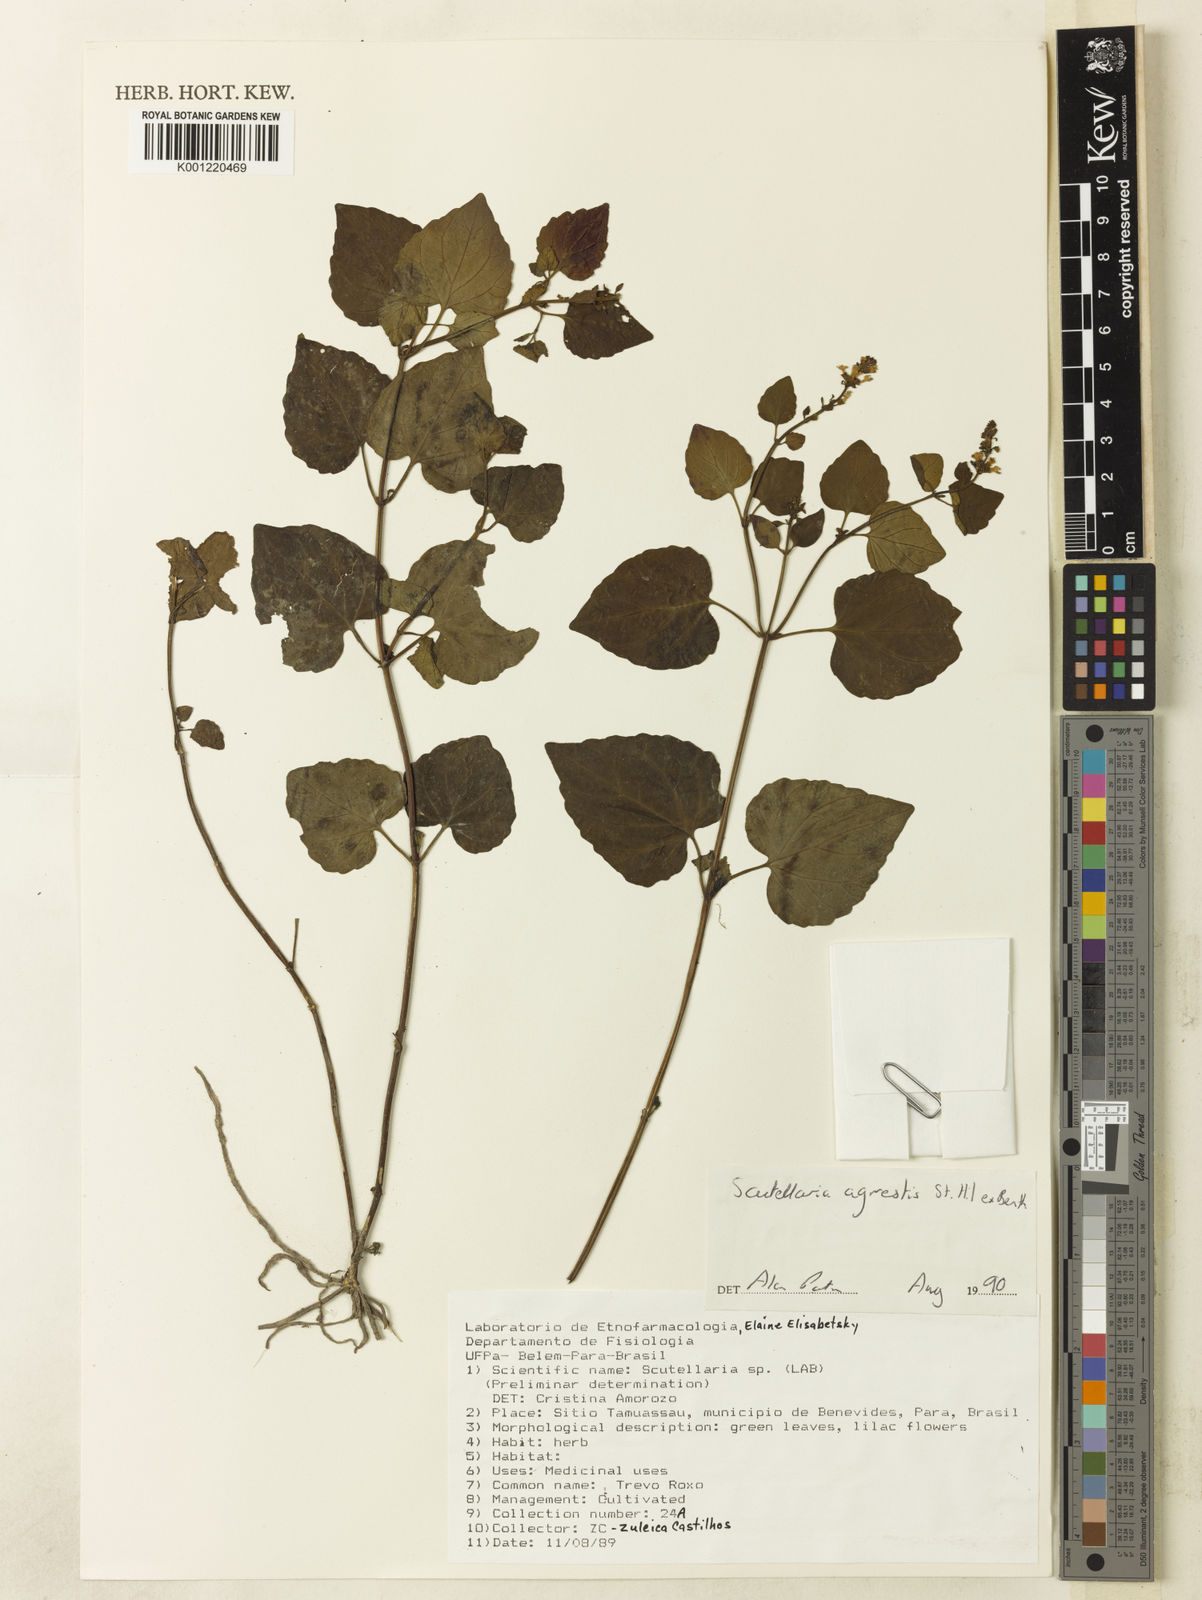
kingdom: Plantae
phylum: Tracheophyta
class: Magnoliopsida
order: Lamiales
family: Lamiaceae
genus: Scutellaria
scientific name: Scutellaria agrestis
